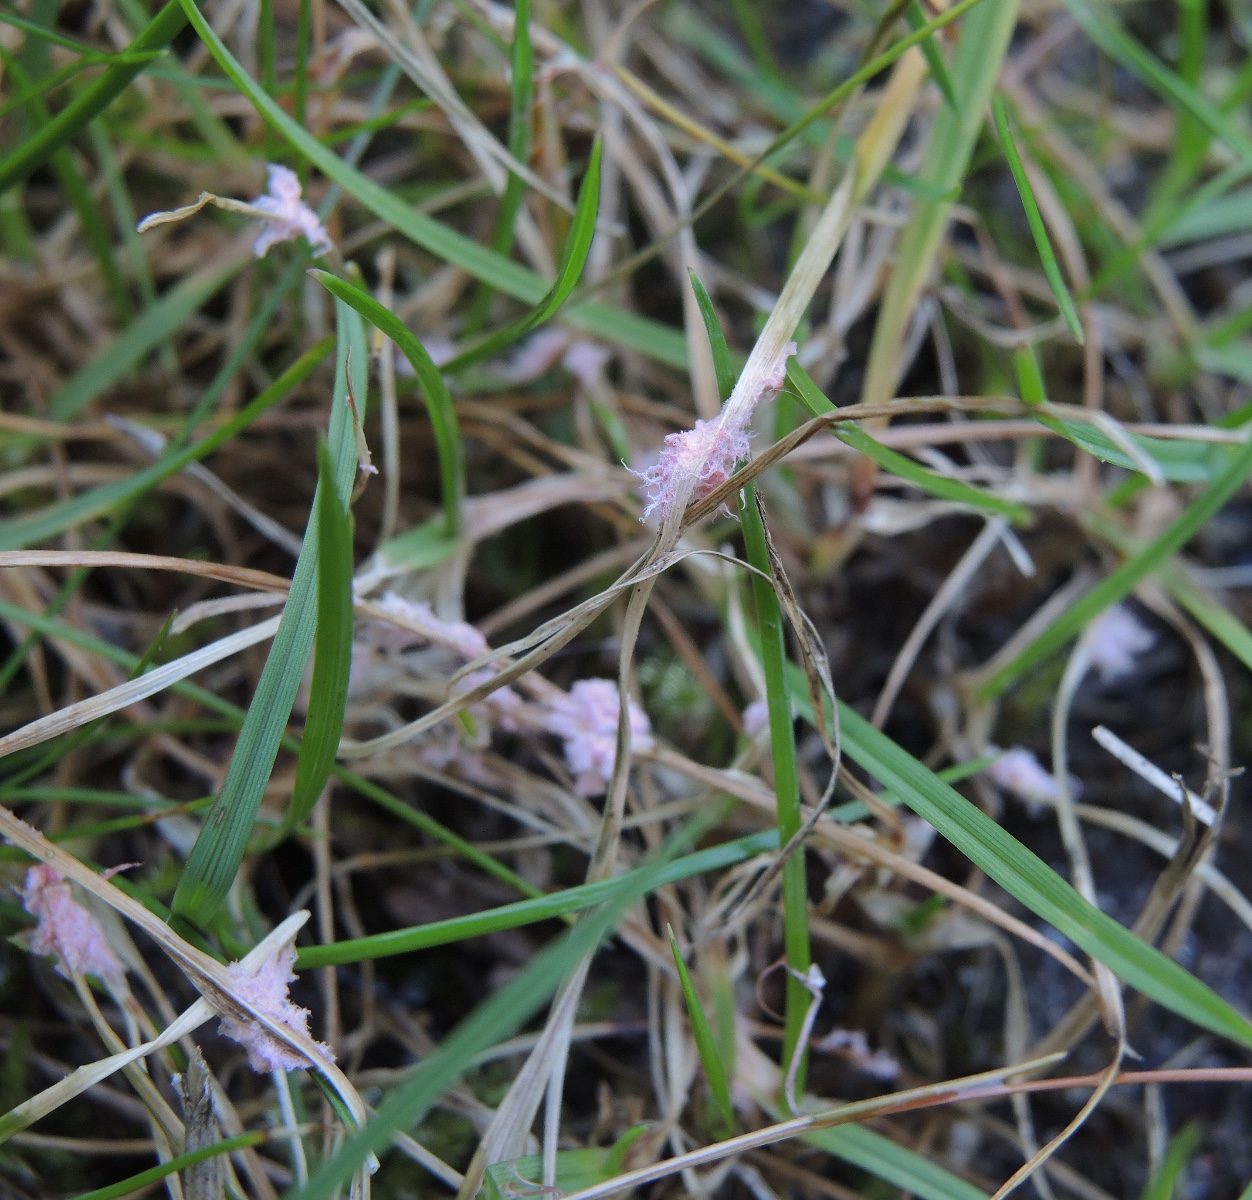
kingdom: Fungi
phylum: Basidiomycota
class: Agaricomycetes
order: Corticiales
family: Corticiaceae
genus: Laetisaria
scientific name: Laetisaria fuciformis
